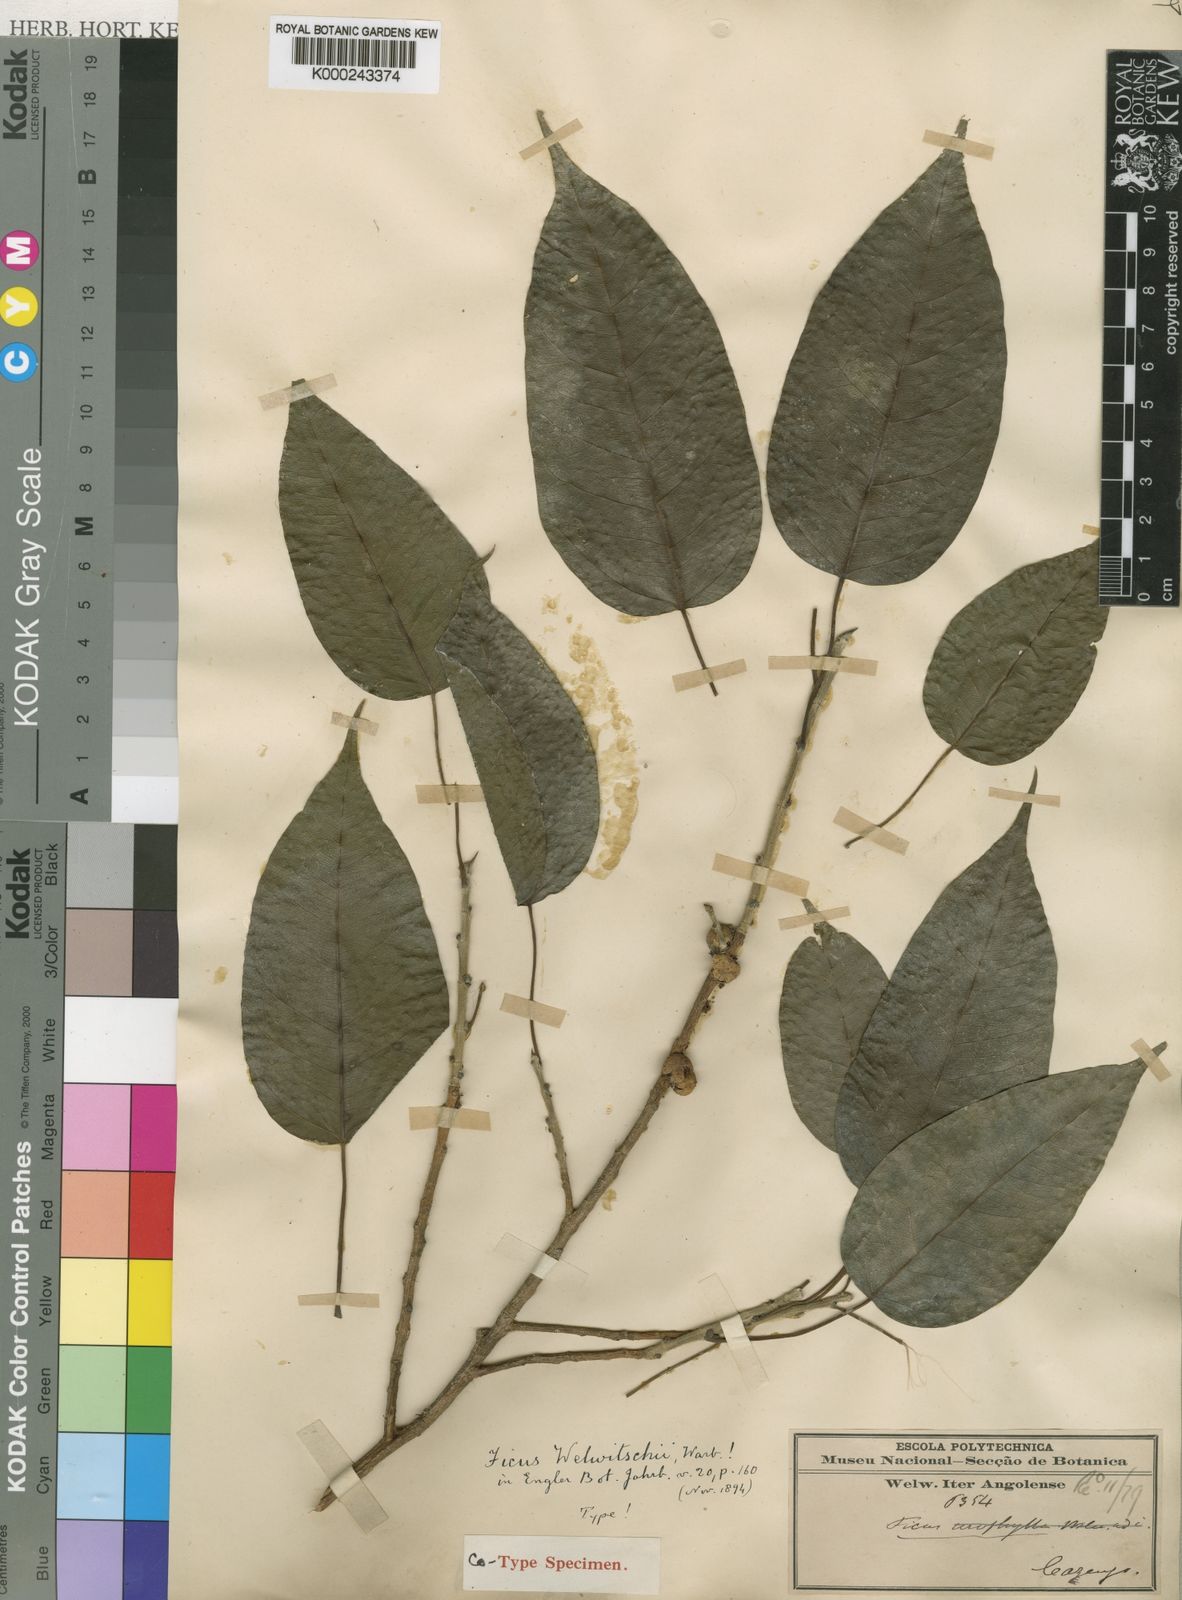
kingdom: Plantae
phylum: Tracheophyta
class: Magnoliopsida
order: Rosales
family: Moraceae
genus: Ficus
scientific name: Ficus cordata
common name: Namaqua rock fig
